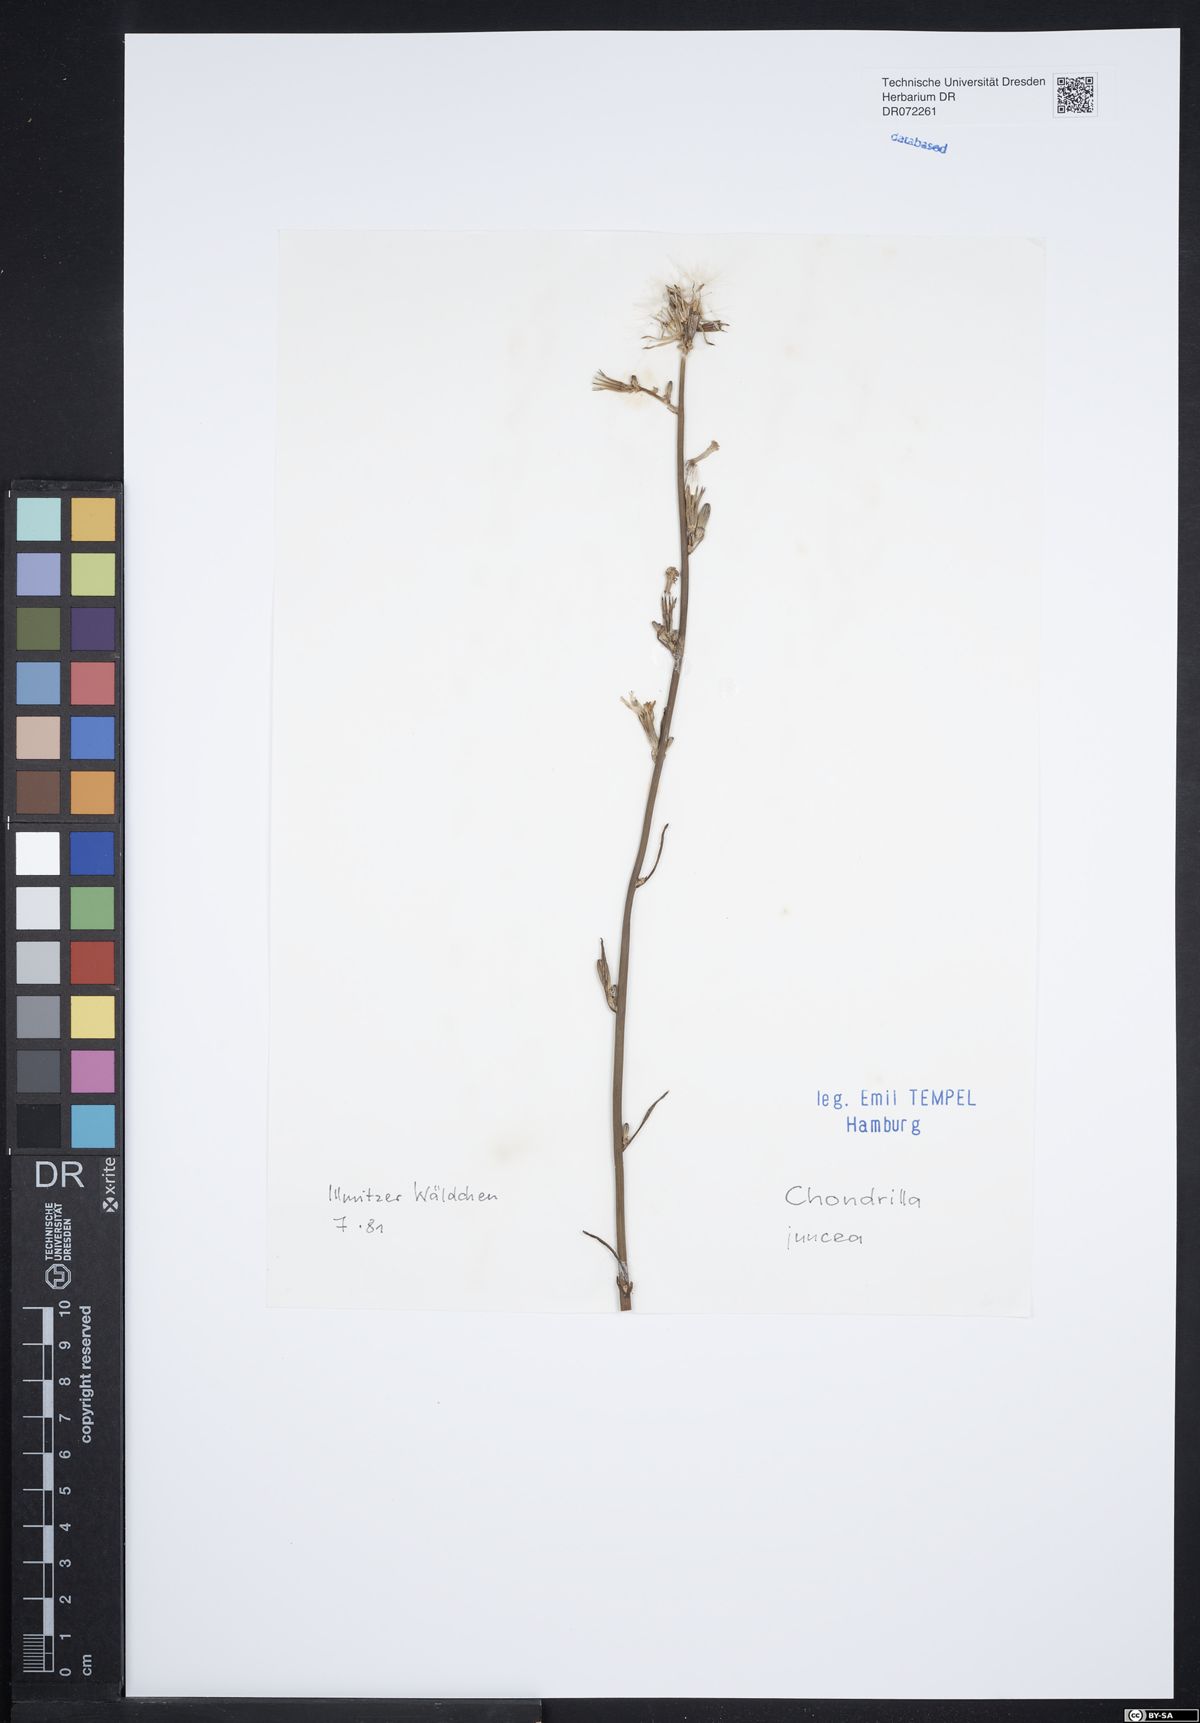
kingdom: Plantae
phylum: Tracheophyta
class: Magnoliopsida
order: Asterales
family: Asteraceae
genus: Chondrilla
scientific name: Chondrilla juncea
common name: Skeleton weed
